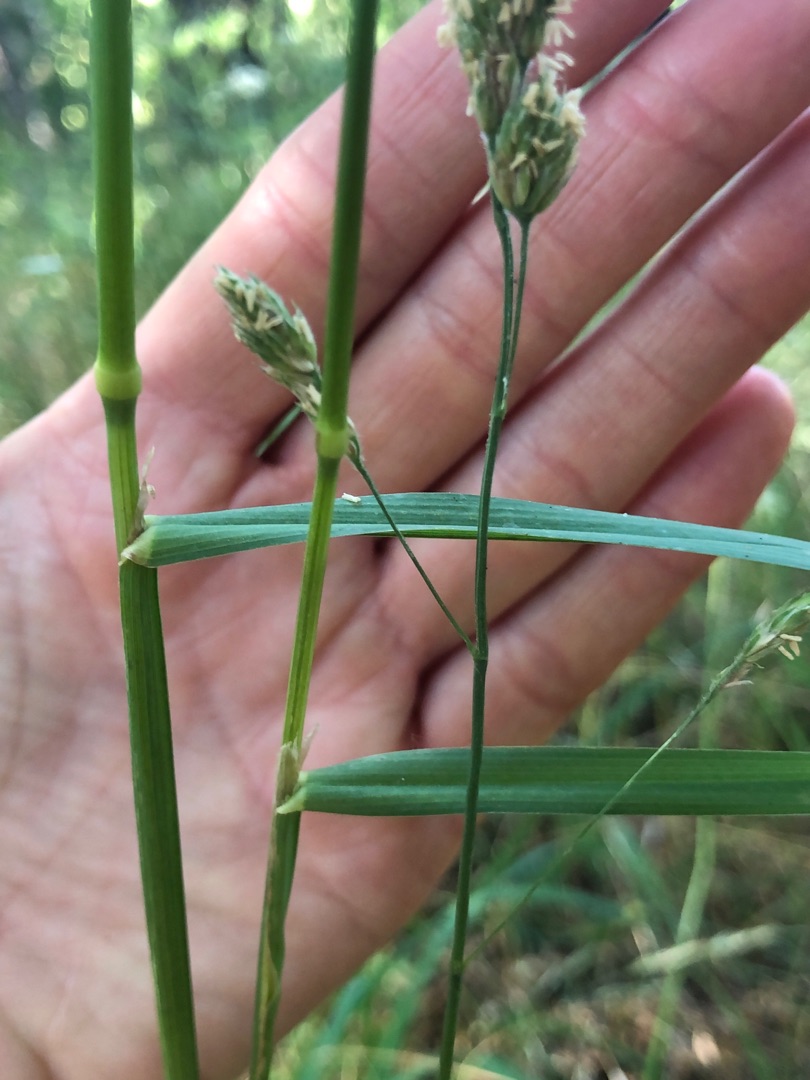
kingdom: Plantae
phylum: Tracheophyta
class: Liliopsida
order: Poales
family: Poaceae
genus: Dactylis
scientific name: Dactylis glomerata
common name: Almindelig hundegræs
